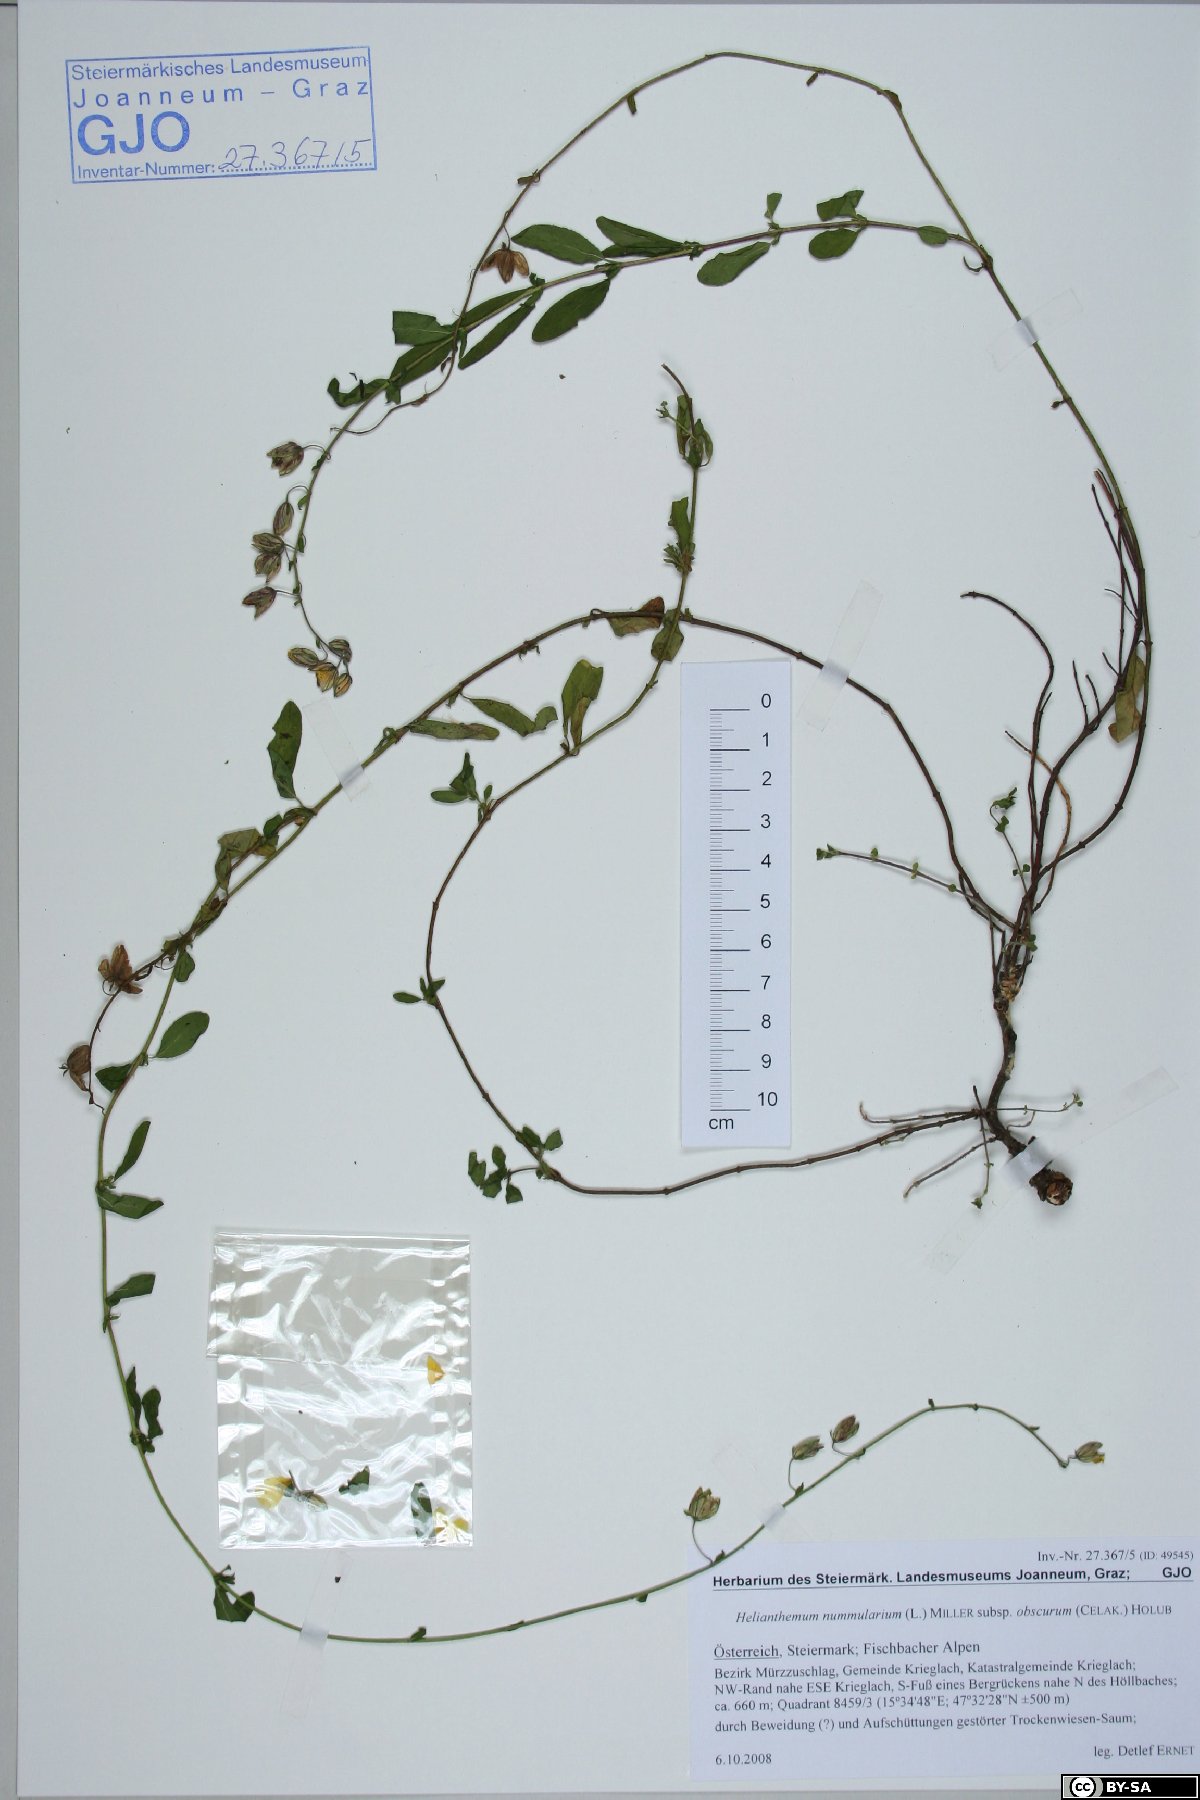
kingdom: Plantae
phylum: Tracheophyta
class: Magnoliopsida
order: Malvales
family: Cistaceae
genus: Helianthemum
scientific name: Helianthemum nummularium
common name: Common rock-rose
